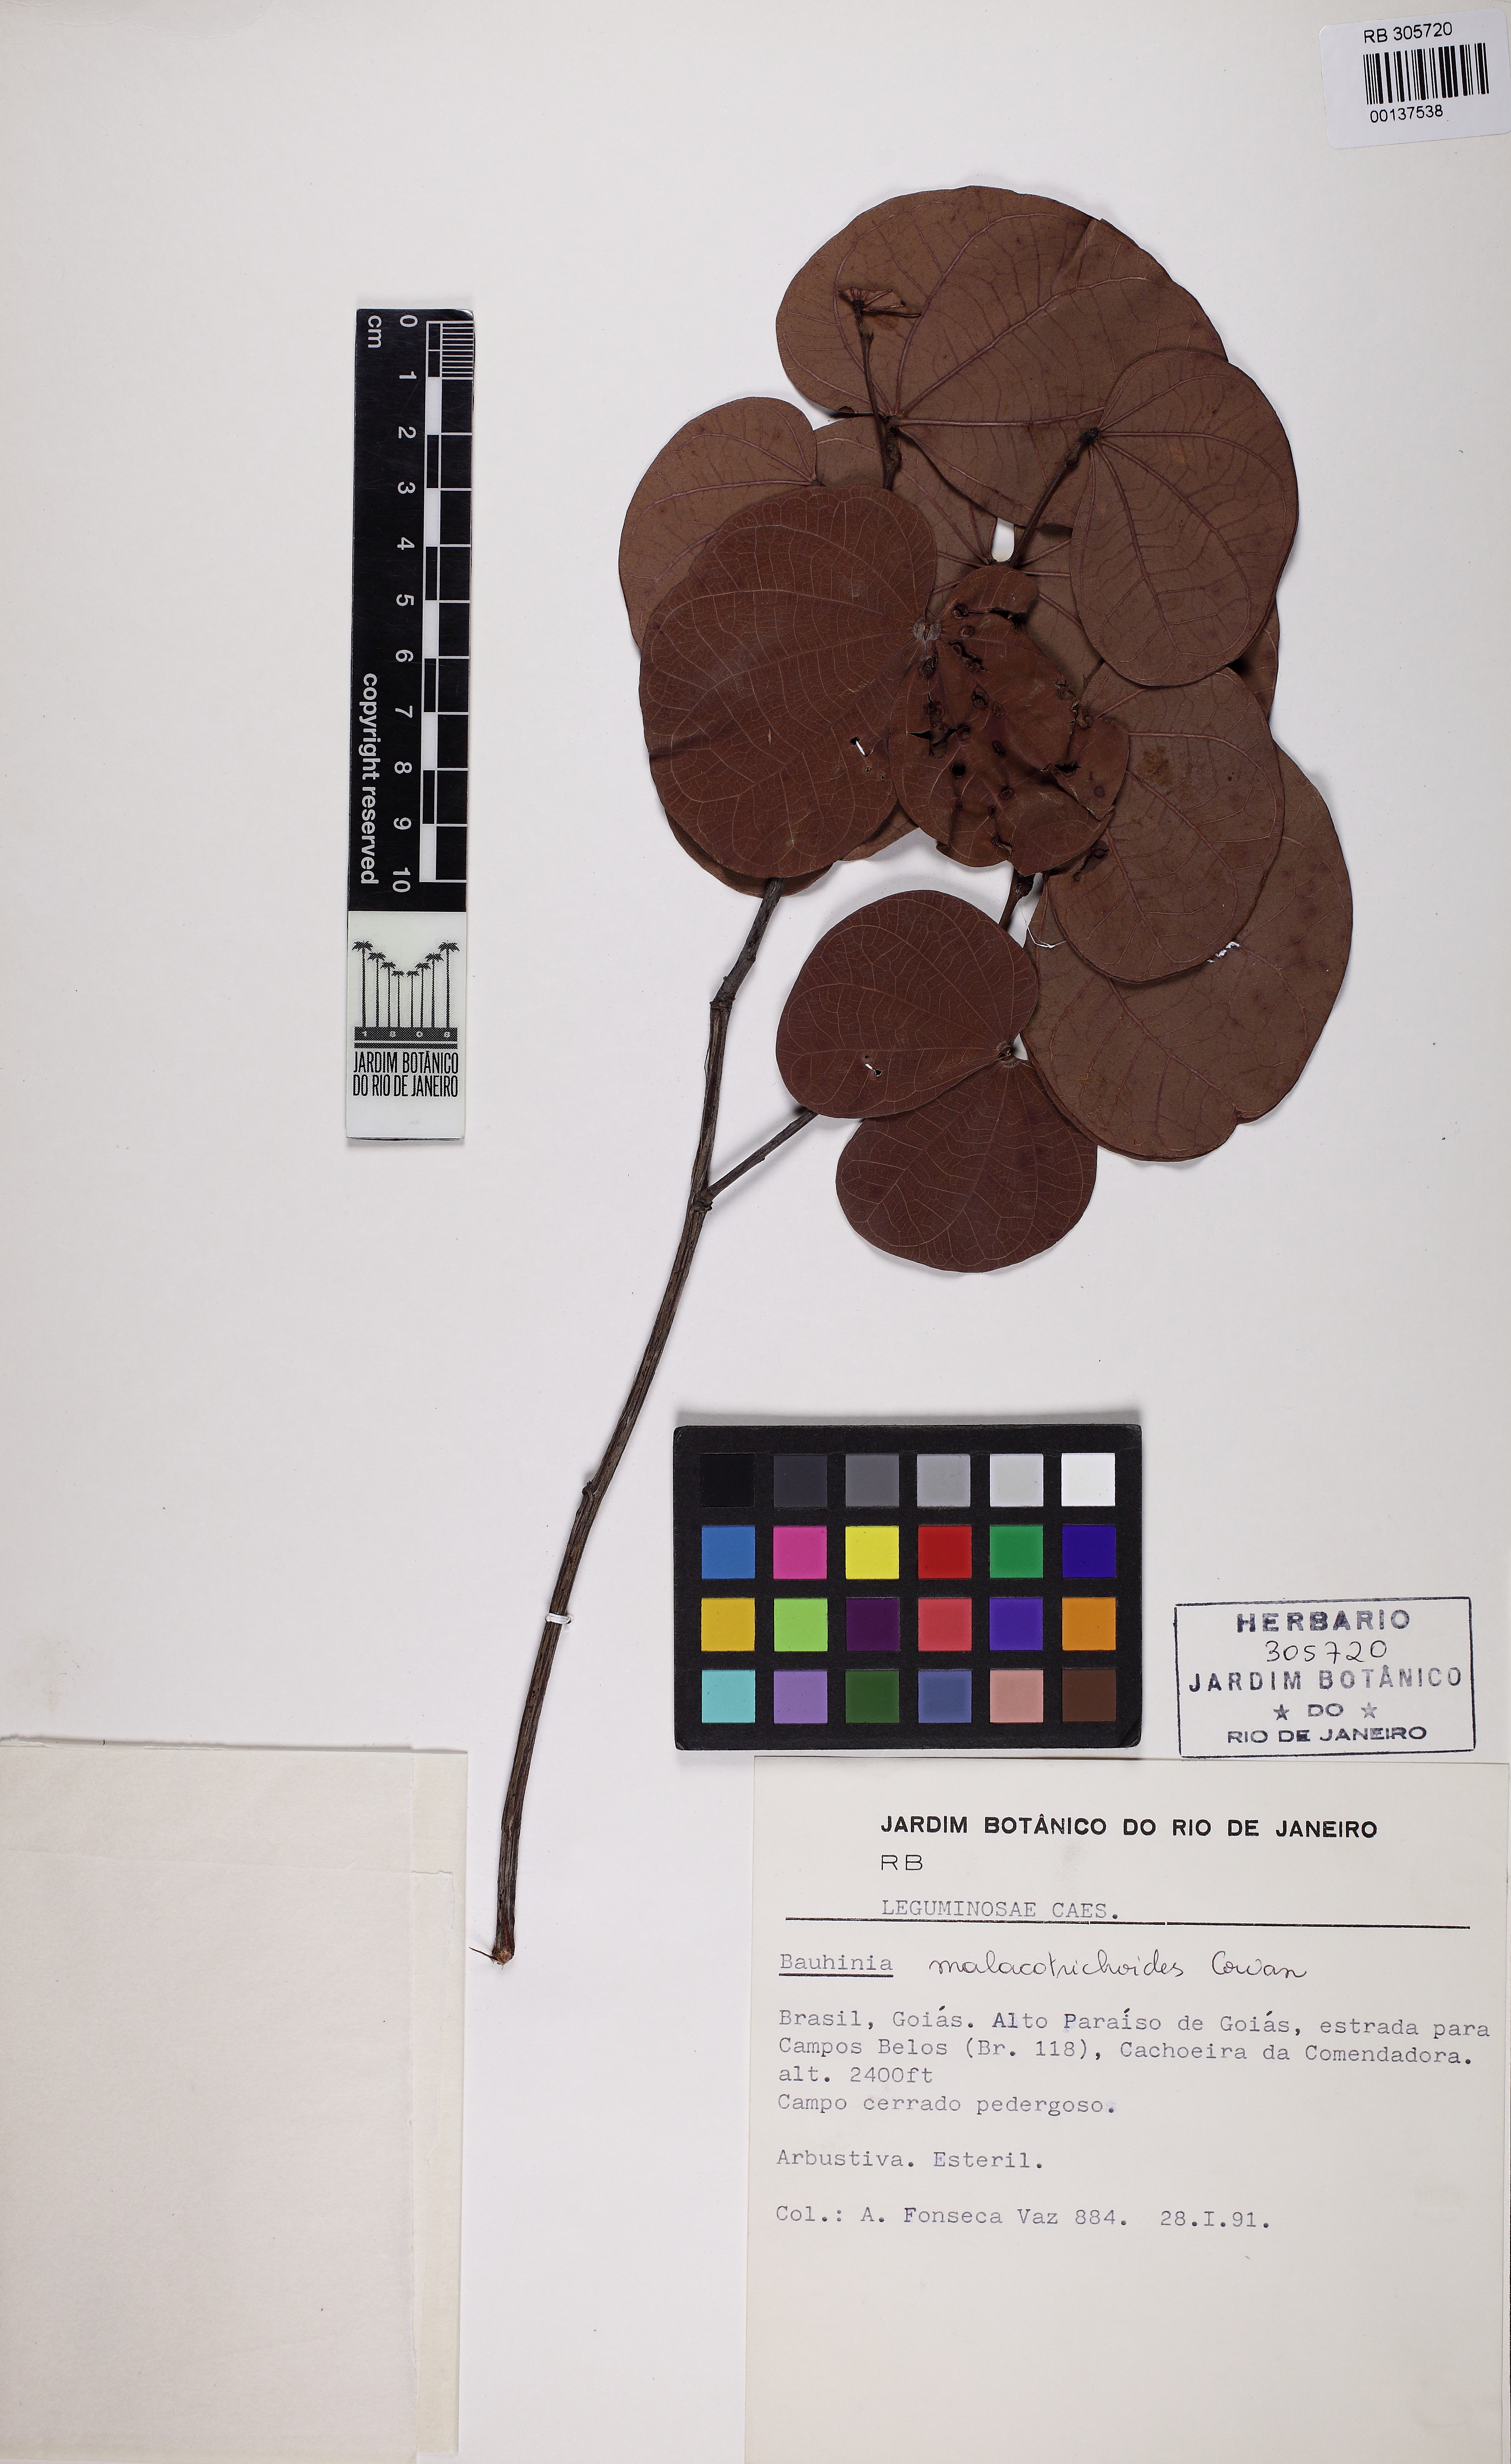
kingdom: Plantae
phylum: Tracheophyta
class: Magnoliopsida
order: Fabales
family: Fabaceae
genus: Bauhinia
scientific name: Bauhinia malacotrichoides
